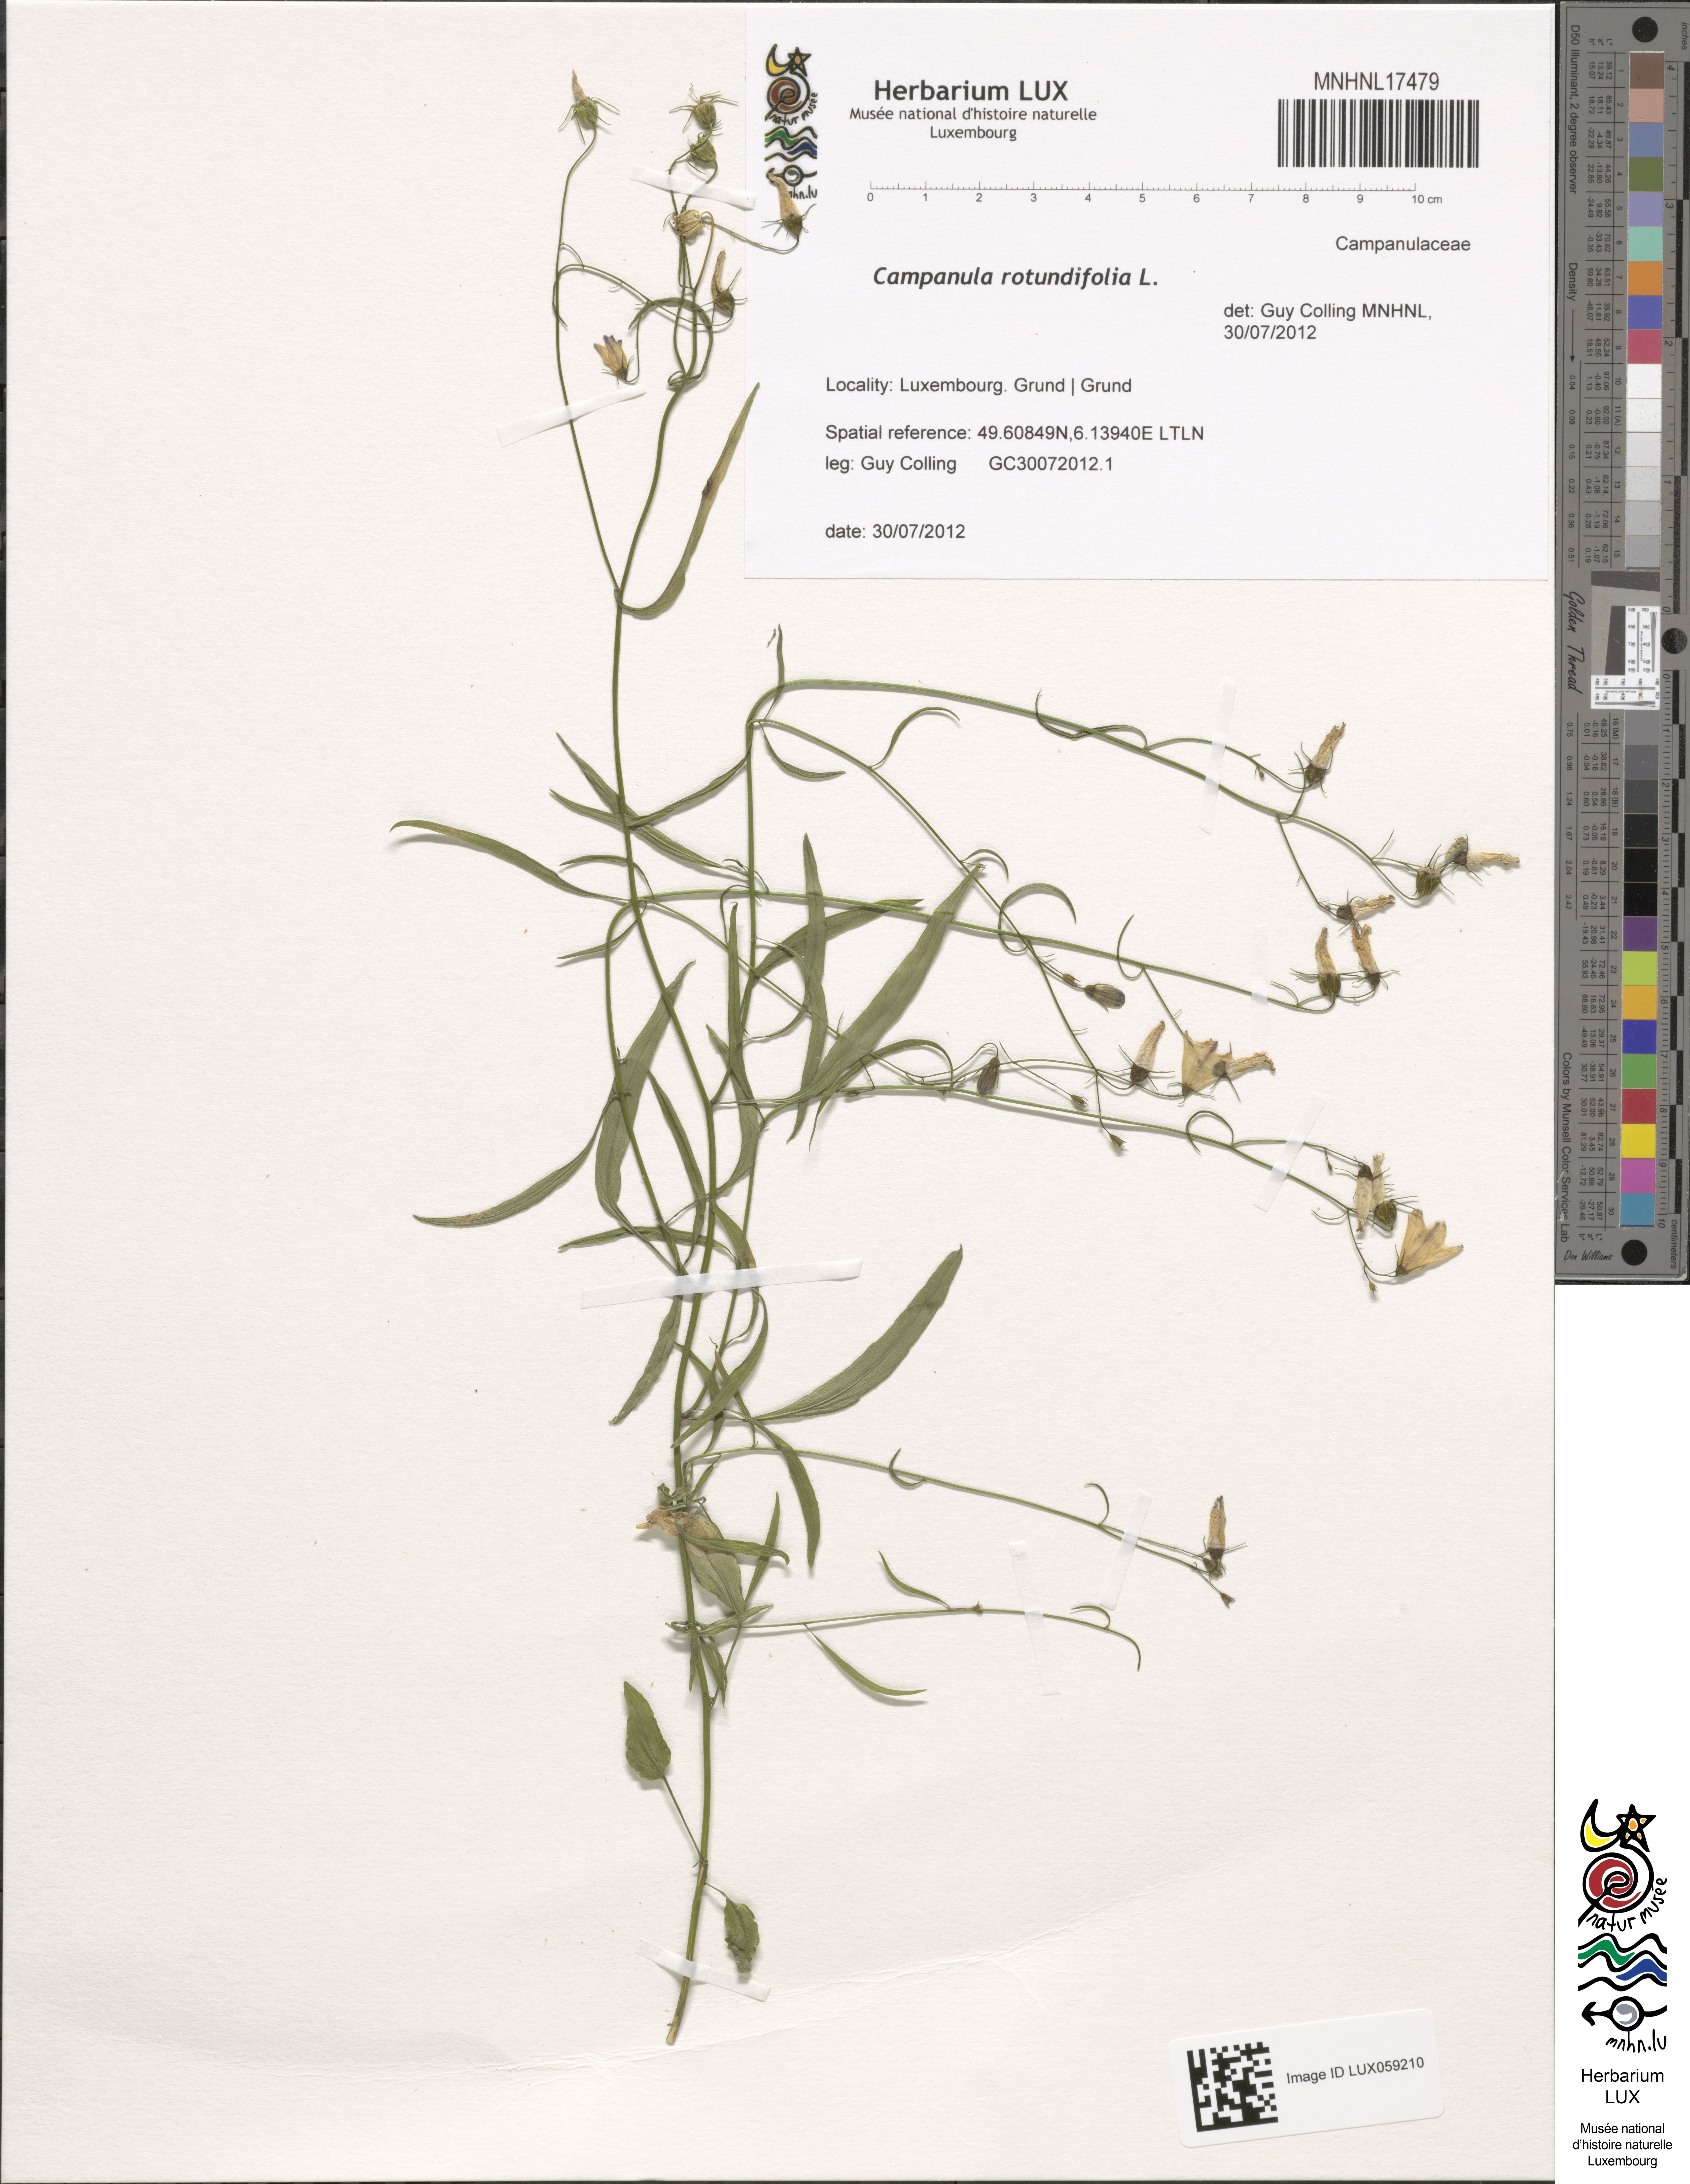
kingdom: Plantae
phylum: Tracheophyta
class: Magnoliopsida
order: Asterales
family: Campanulaceae
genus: Campanula
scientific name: Campanula rotundifolia
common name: Harebell
